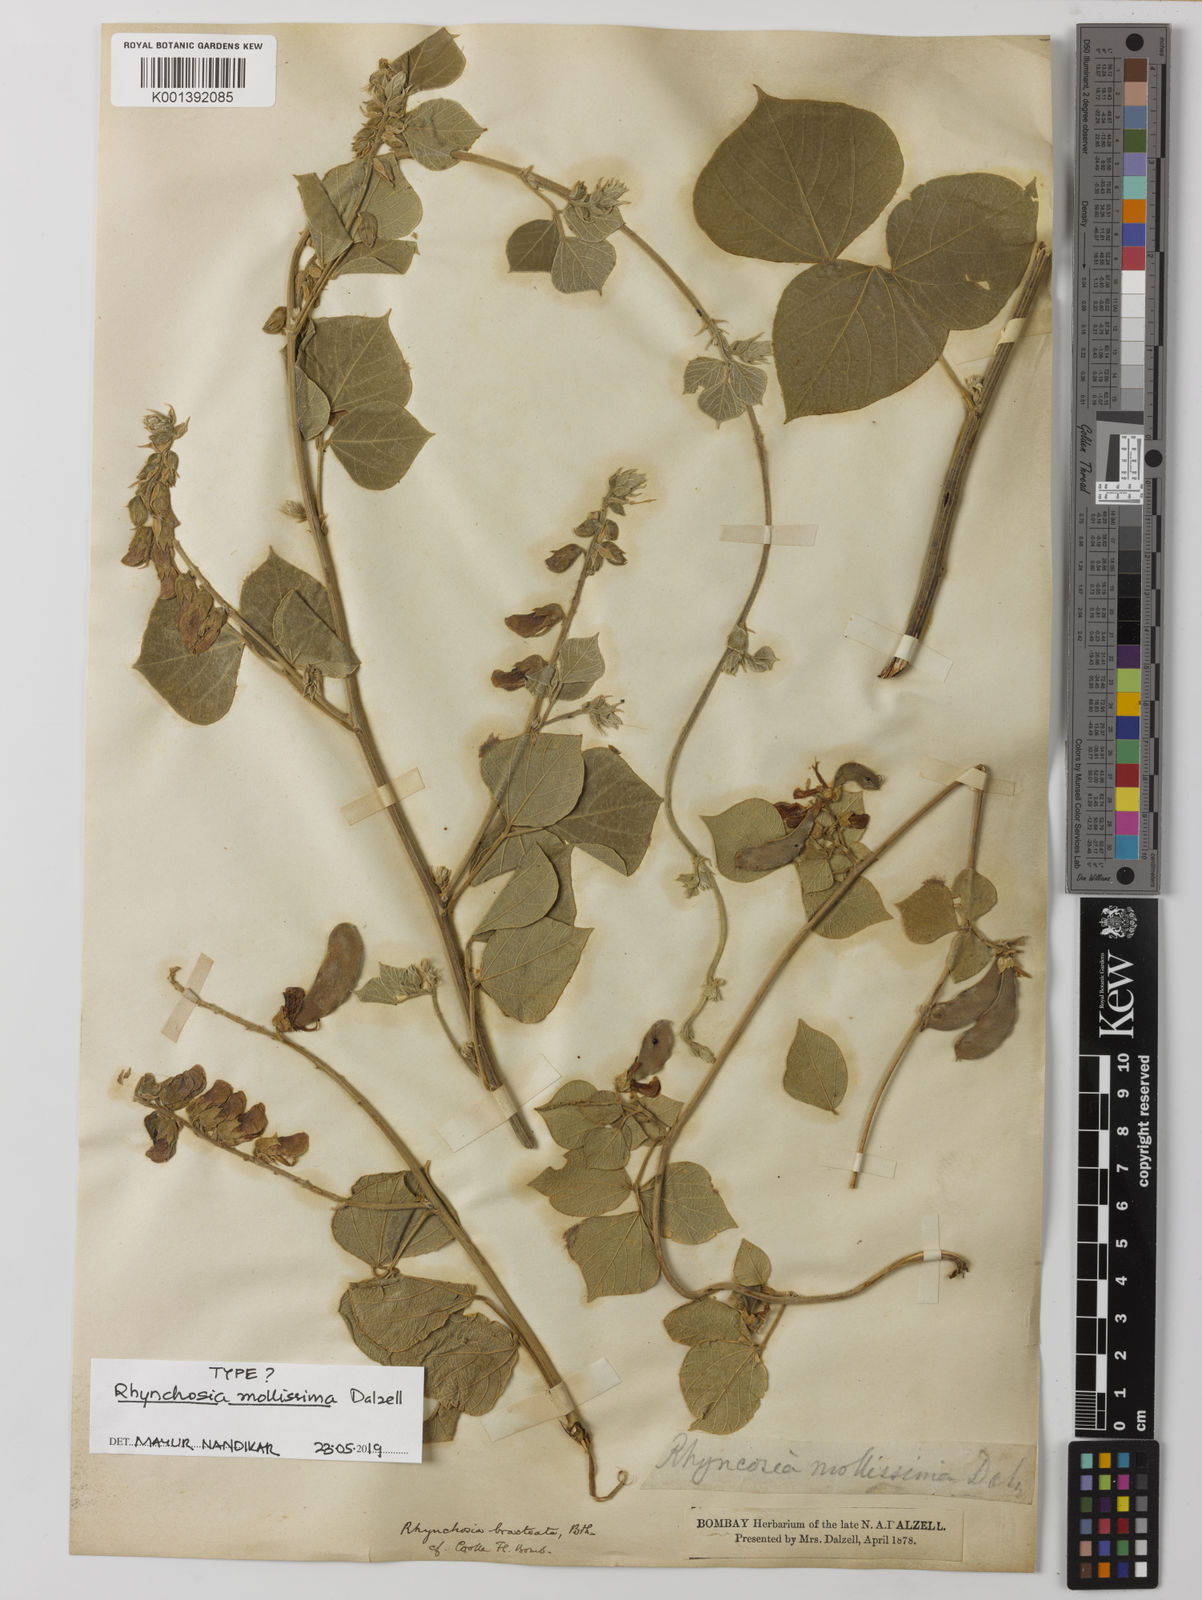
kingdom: Plantae
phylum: Tracheophyta
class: Magnoliopsida
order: Fabales
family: Fabaceae
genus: Rhynchosia
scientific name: Rhynchosia bracteata
